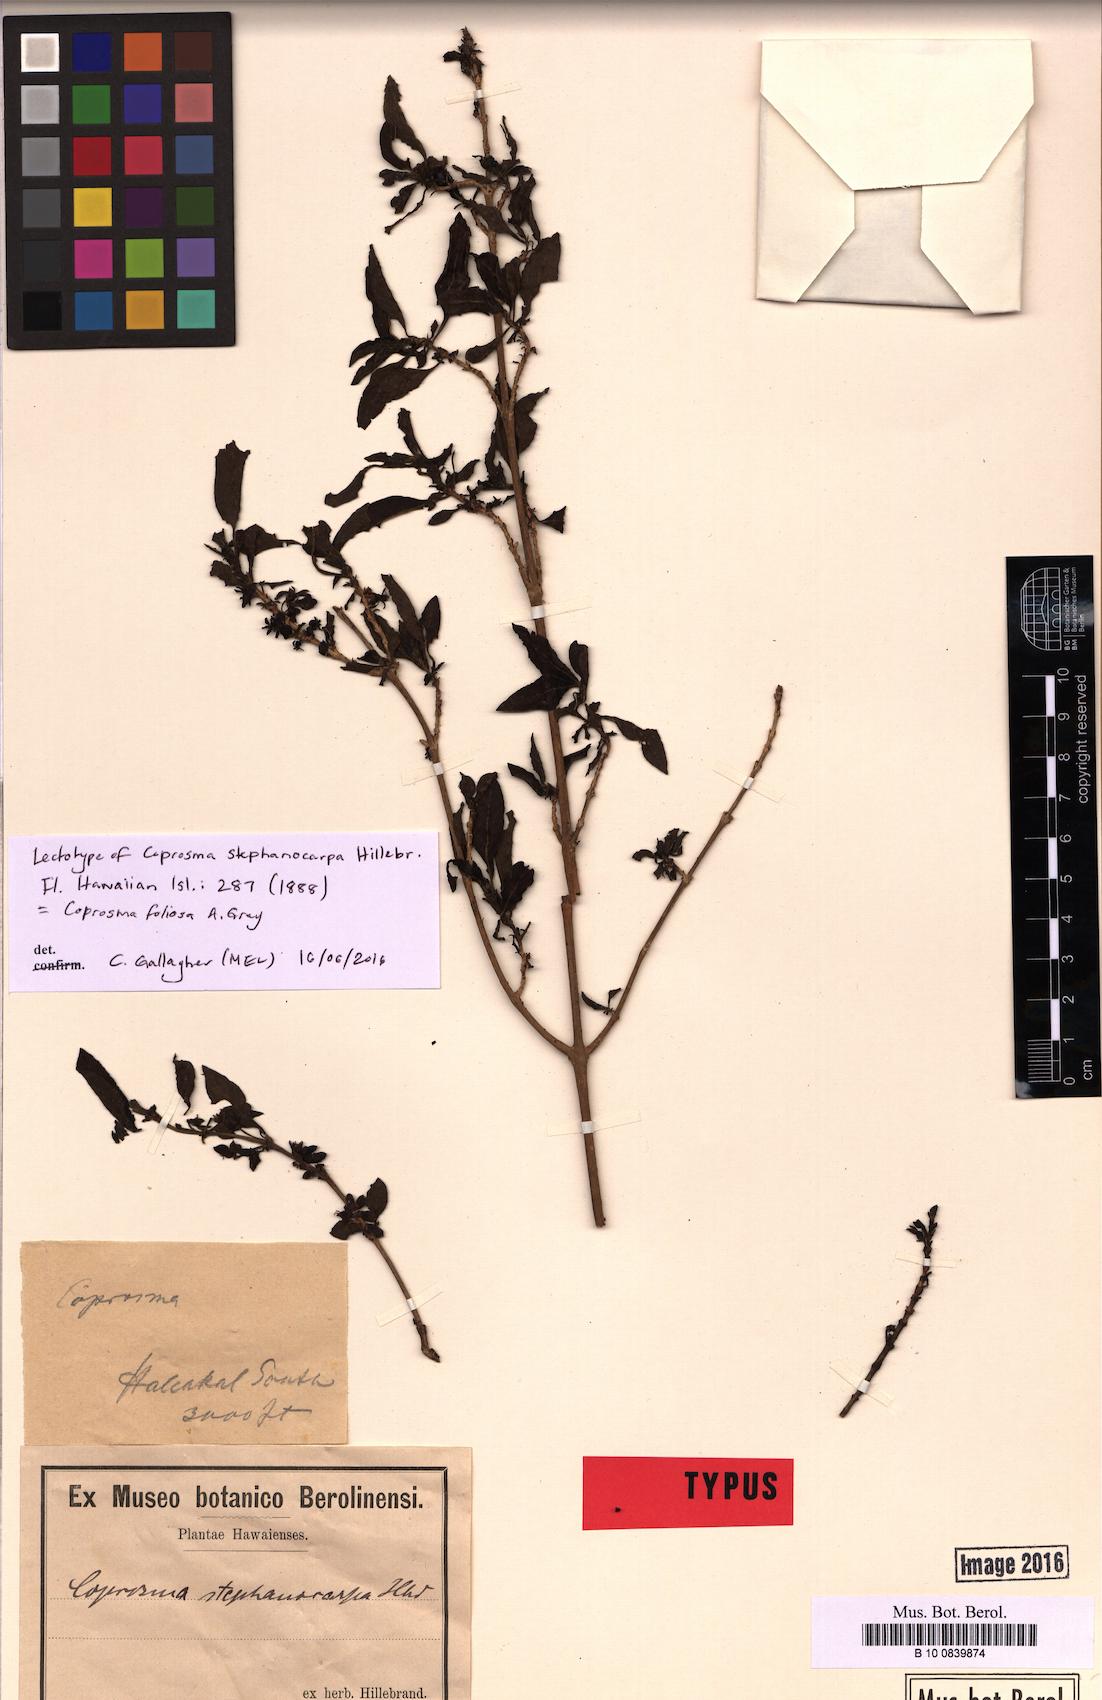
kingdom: Plantae
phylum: Tracheophyta
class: Magnoliopsida
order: Gentianales
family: Rubiaceae
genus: Coprosma
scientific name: Coprosma foliosa
